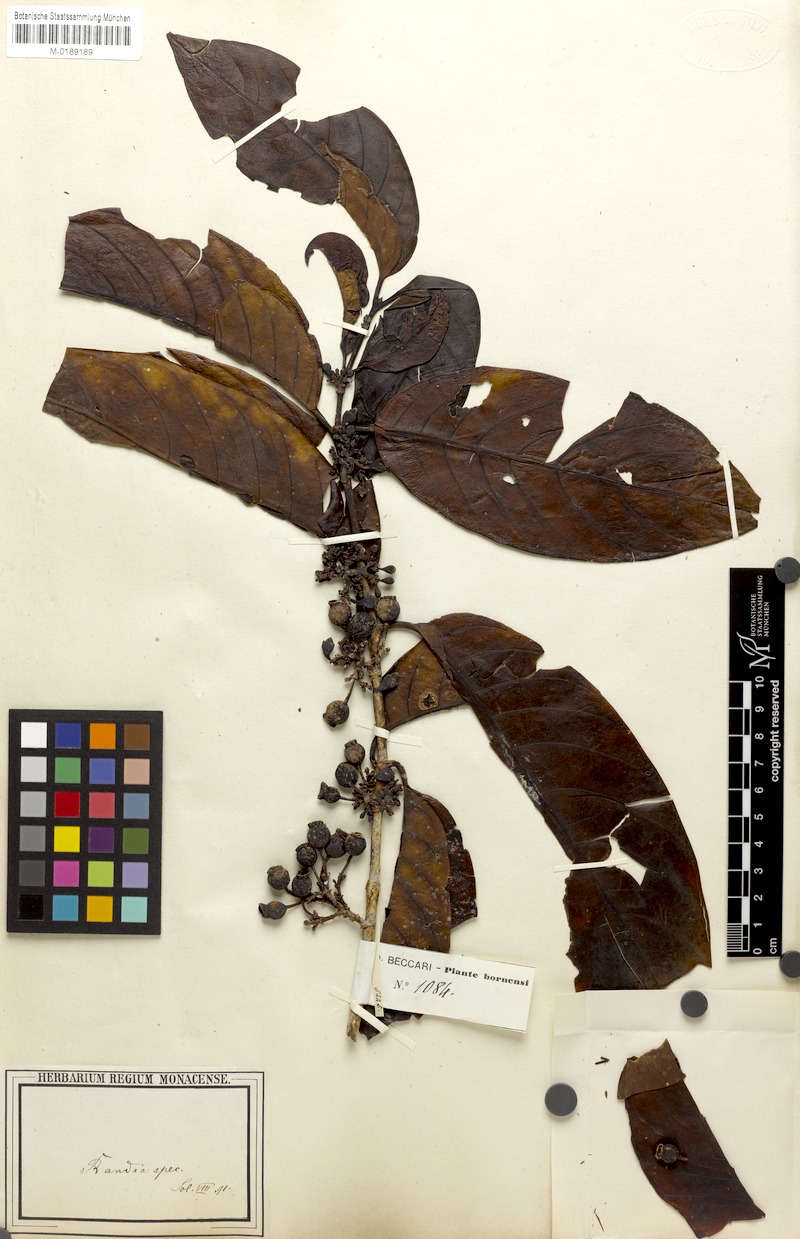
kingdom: Plantae
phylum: Tracheophyta
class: Magnoliopsida
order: Gentianales
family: Rubiaceae
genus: Randia
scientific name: Randia
